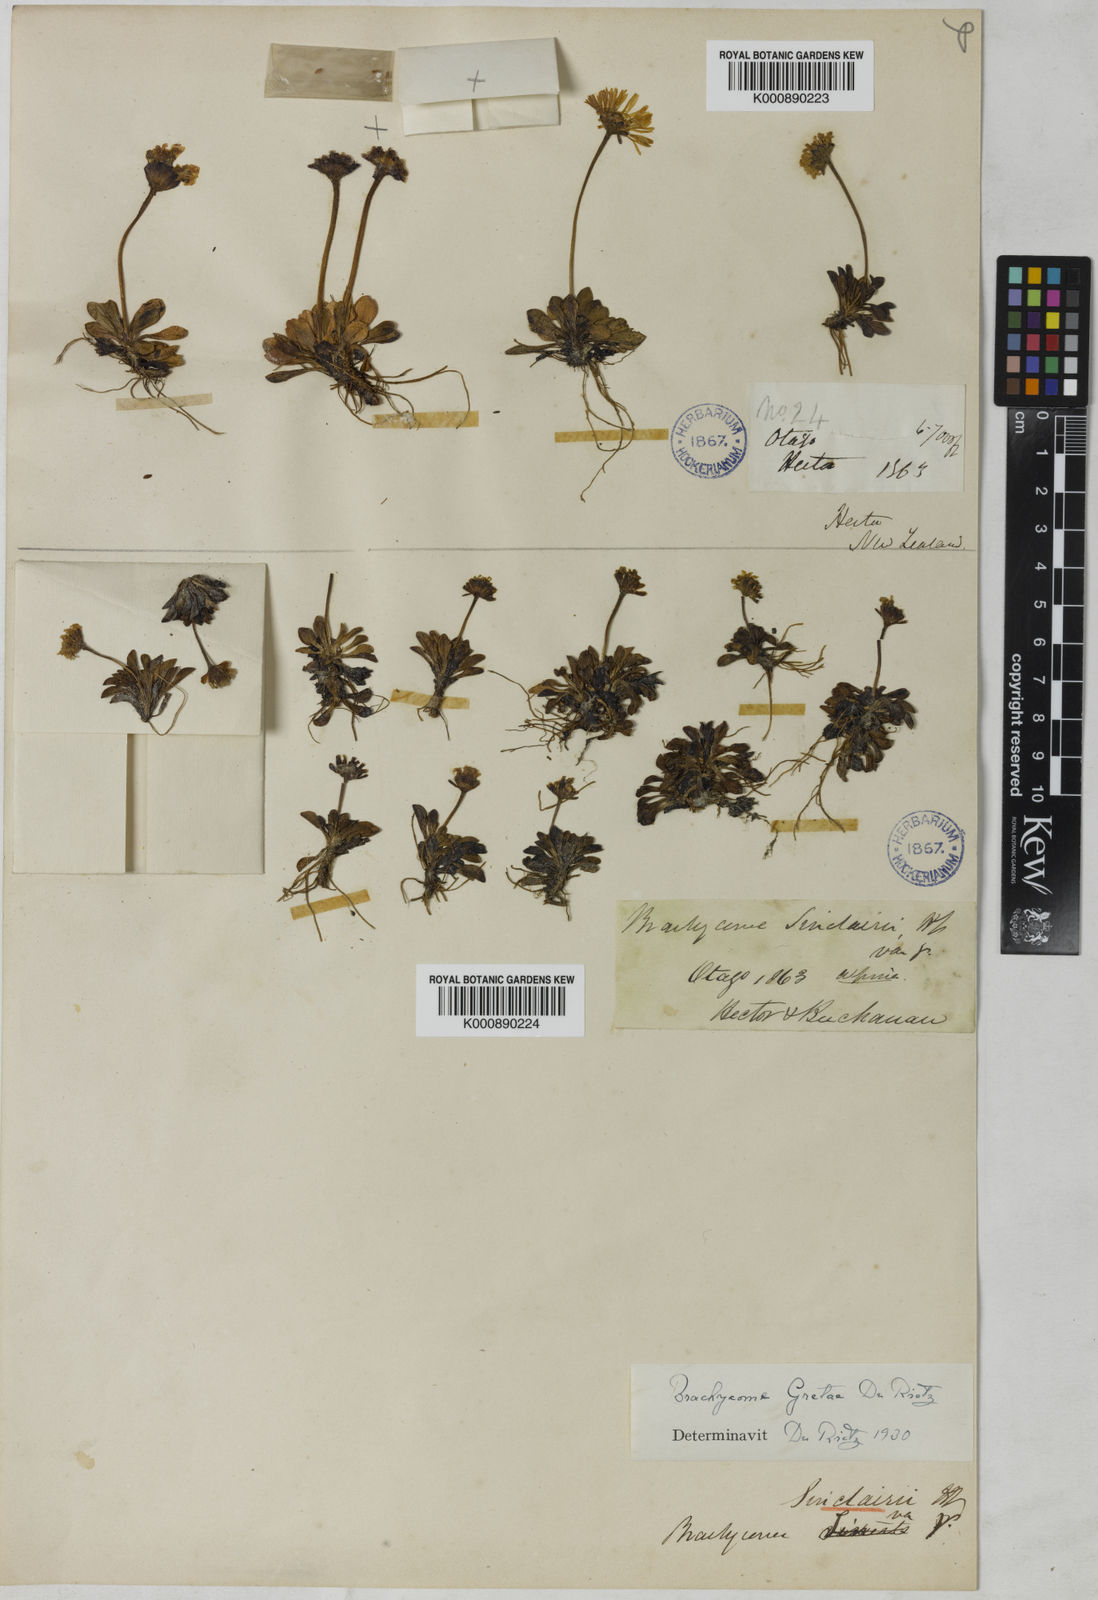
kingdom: Plantae
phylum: Tracheophyta
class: Magnoliopsida
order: Asterales
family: Asteraceae
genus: Brachyscome
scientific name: Brachyscome
